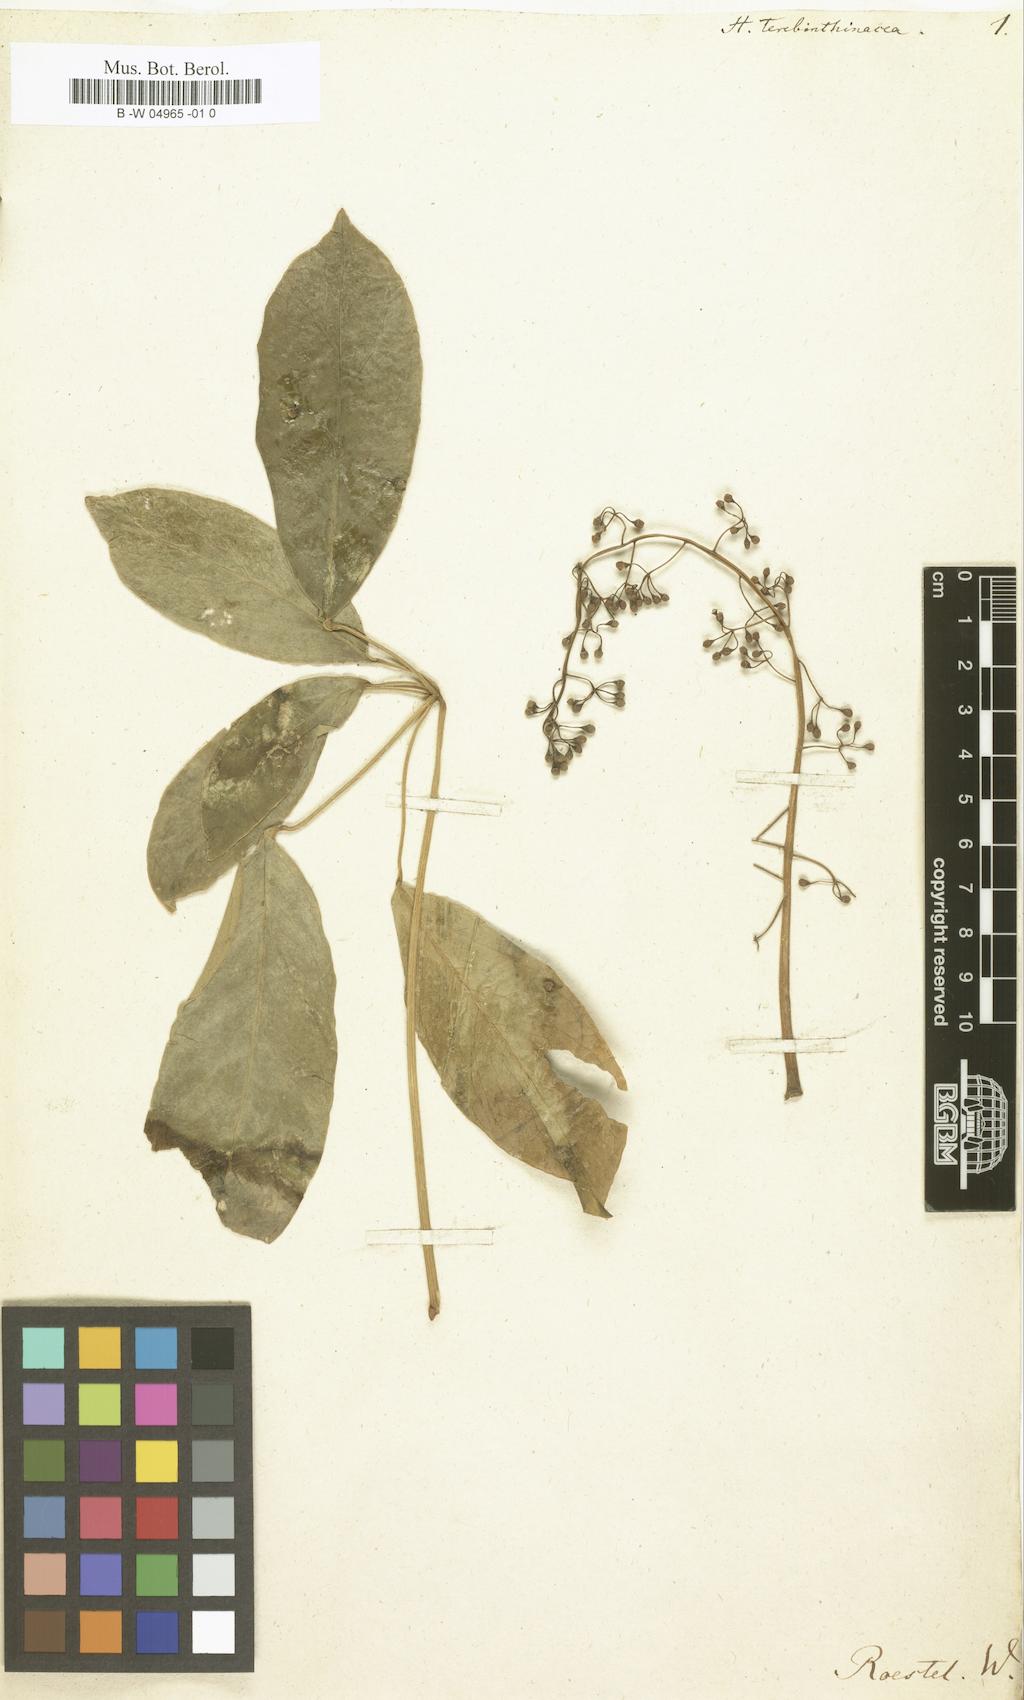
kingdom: Plantae
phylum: Tracheophyta
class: Magnoliopsida
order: Apiales
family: Araliaceae
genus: Heptapleurum
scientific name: Heptapleurum
